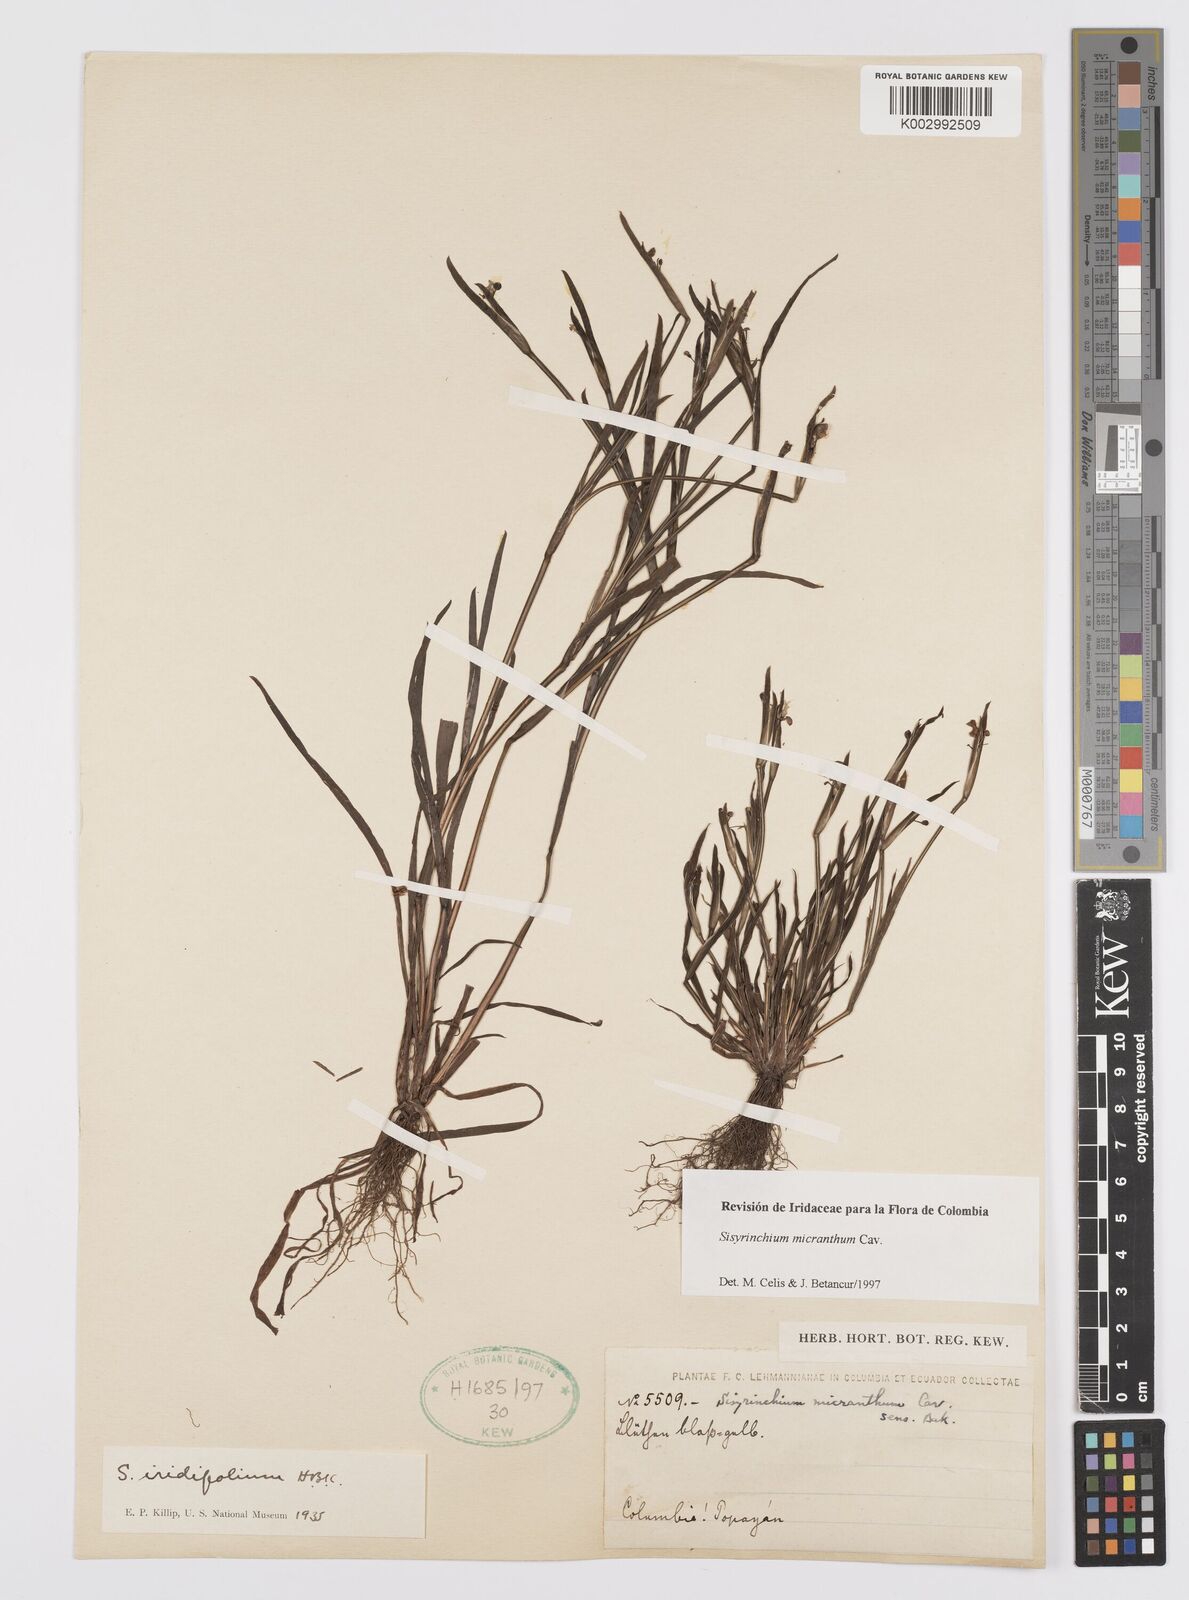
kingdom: Plantae
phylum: Tracheophyta
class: Liliopsida
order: Asparagales
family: Iridaceae
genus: Sisyrinchium
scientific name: Sisyrinchium micranthum
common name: Bermuda pigroot
